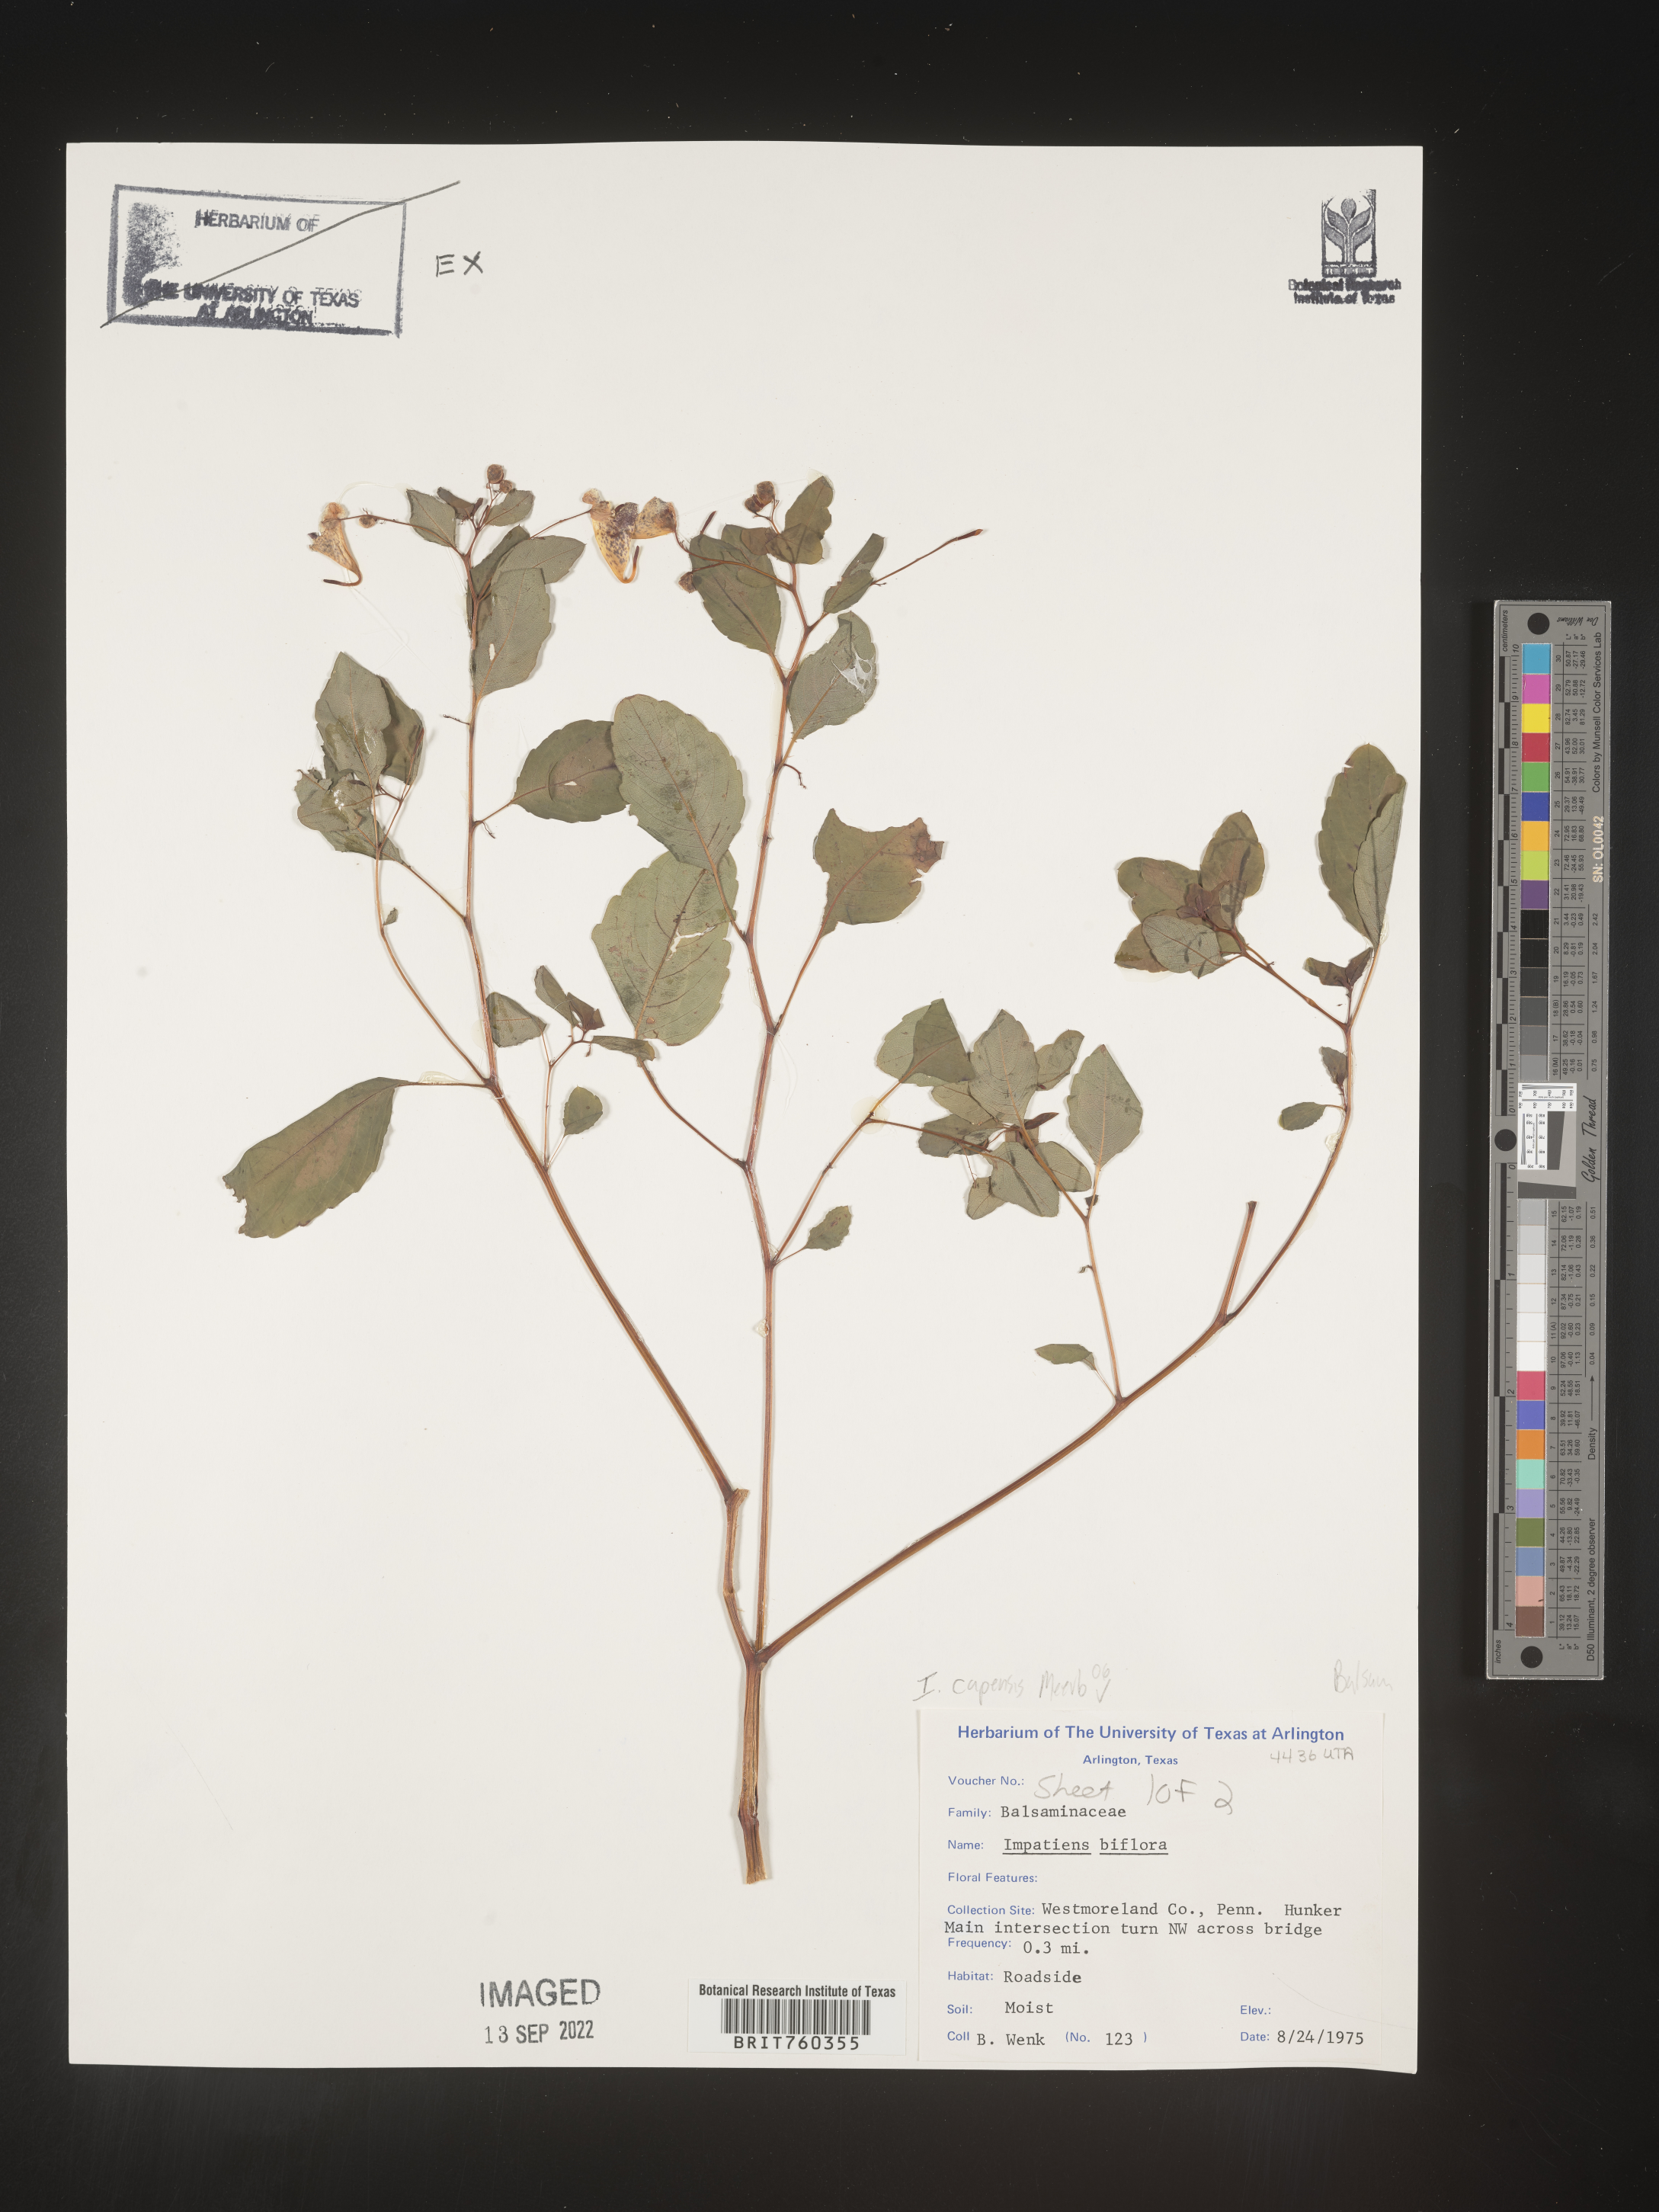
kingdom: Plantae
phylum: Tracheophyta
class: Magnoliopsida
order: Ericales
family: Balsaminaceae
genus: Impatiens
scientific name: Impatiens
